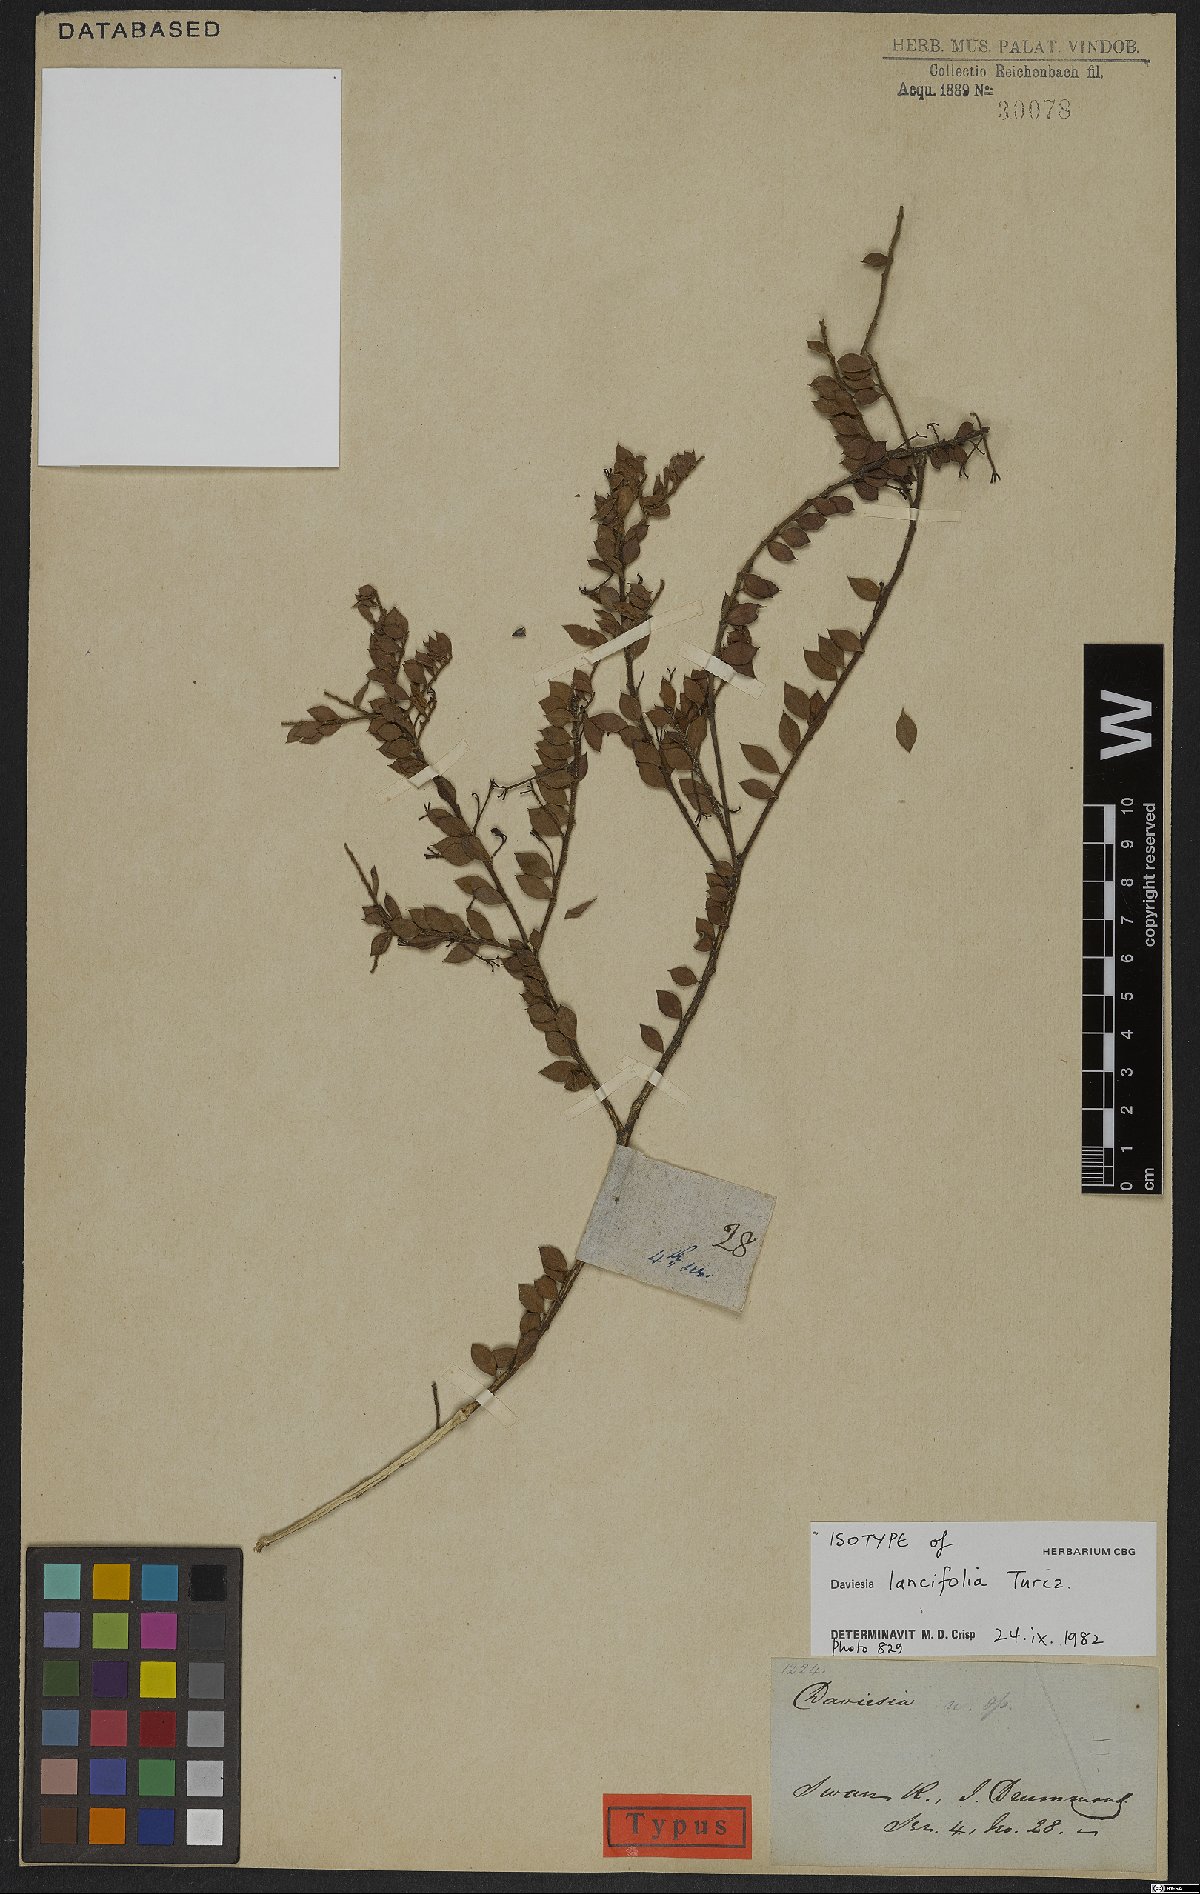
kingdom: Plantae
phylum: Tracheophyta
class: Magnoliopsida
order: Fabales
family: Fabaceae
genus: Daviesia
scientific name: Daviesia lancifolia
